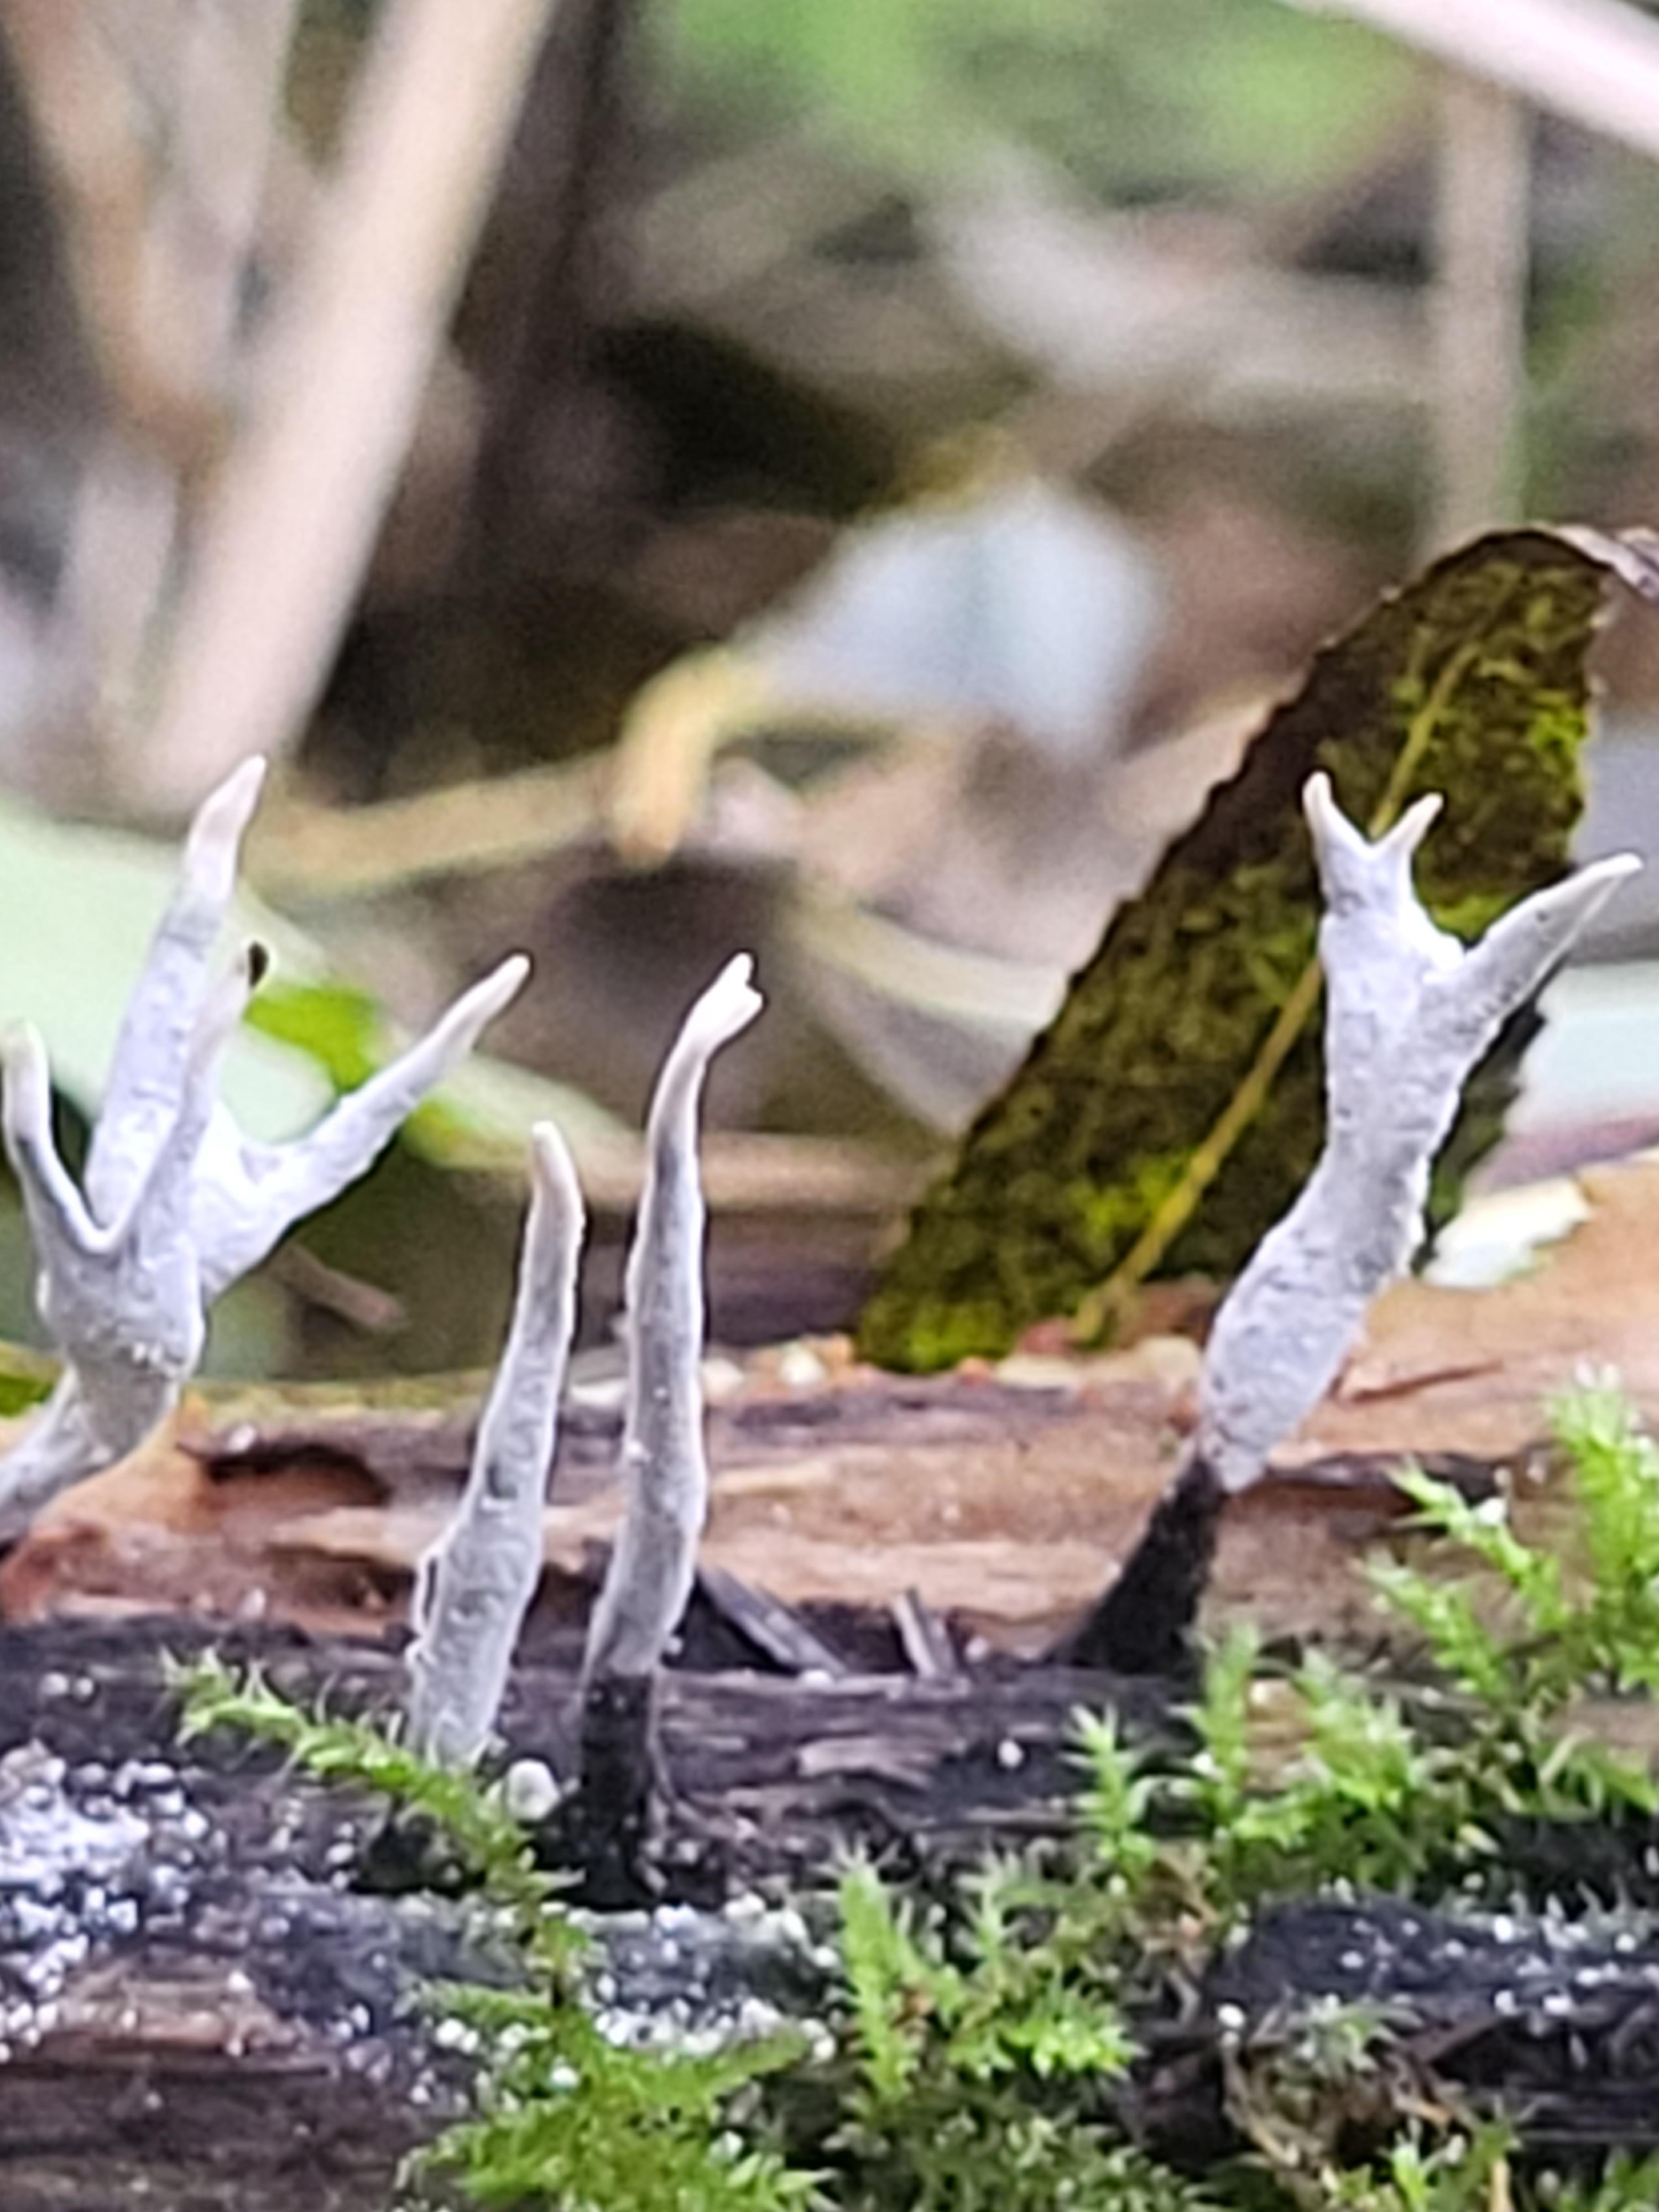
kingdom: Fungi
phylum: Ascomycota
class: Sordariomycetes
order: Xylariales
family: Xylariaceae
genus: Xylaria
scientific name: Xylaria hypoxylon
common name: grenet stødsvamp
